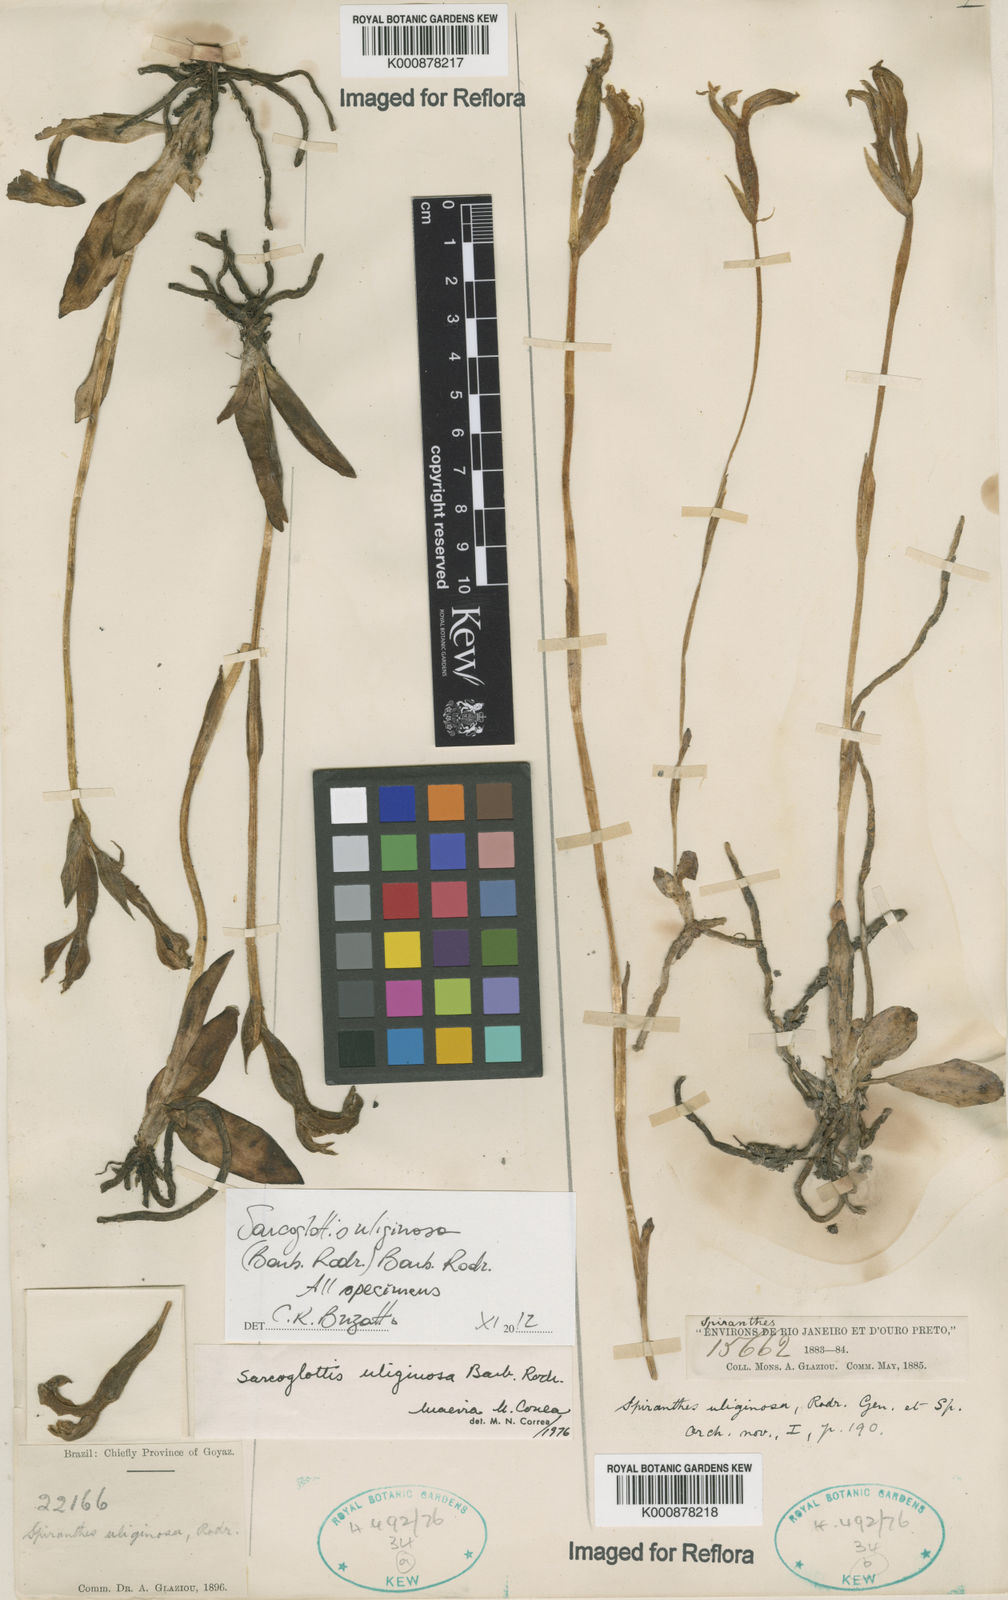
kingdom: Plantae
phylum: Tracheophyta
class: Liliopsida
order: Asparagales
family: Orchidaceae
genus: Sarcoglottis
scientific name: Sarcoglottis uliginosa
